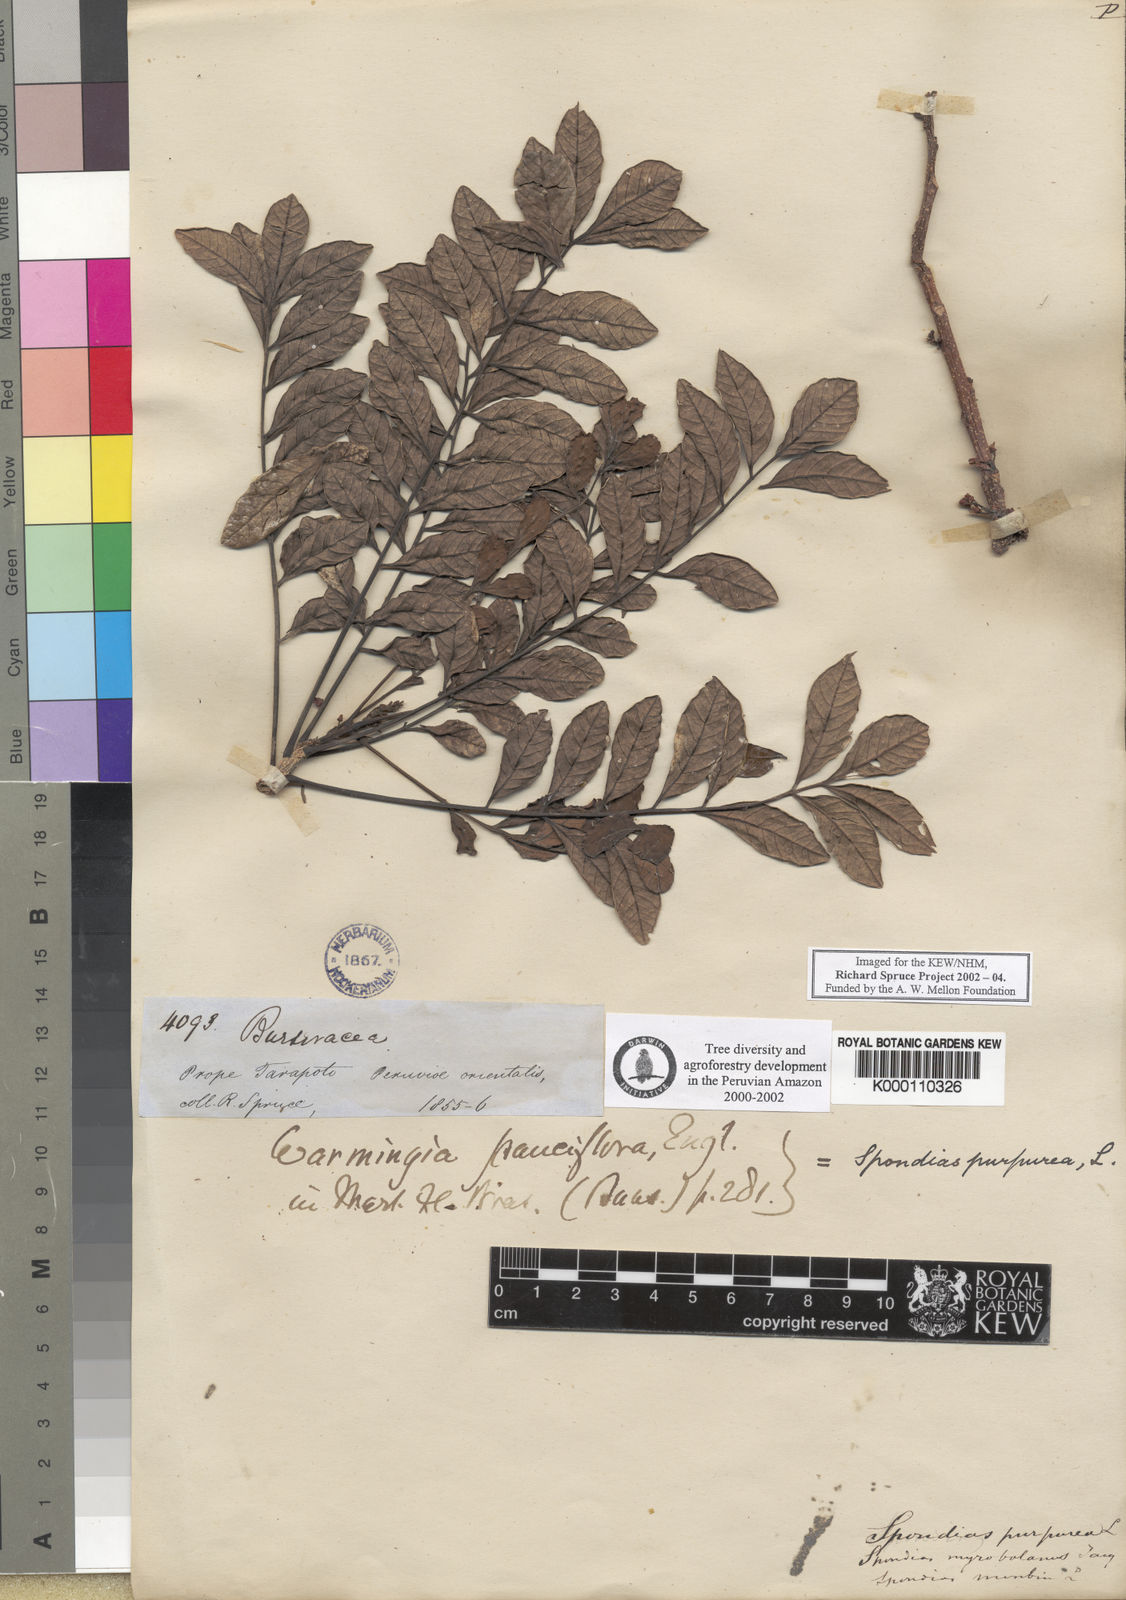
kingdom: Plantae
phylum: Tracheophyta
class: Magnoliopsida
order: Sapindales
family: Anacardiaceae
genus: Spondias
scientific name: Spondias purpurea
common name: Purple mombin
